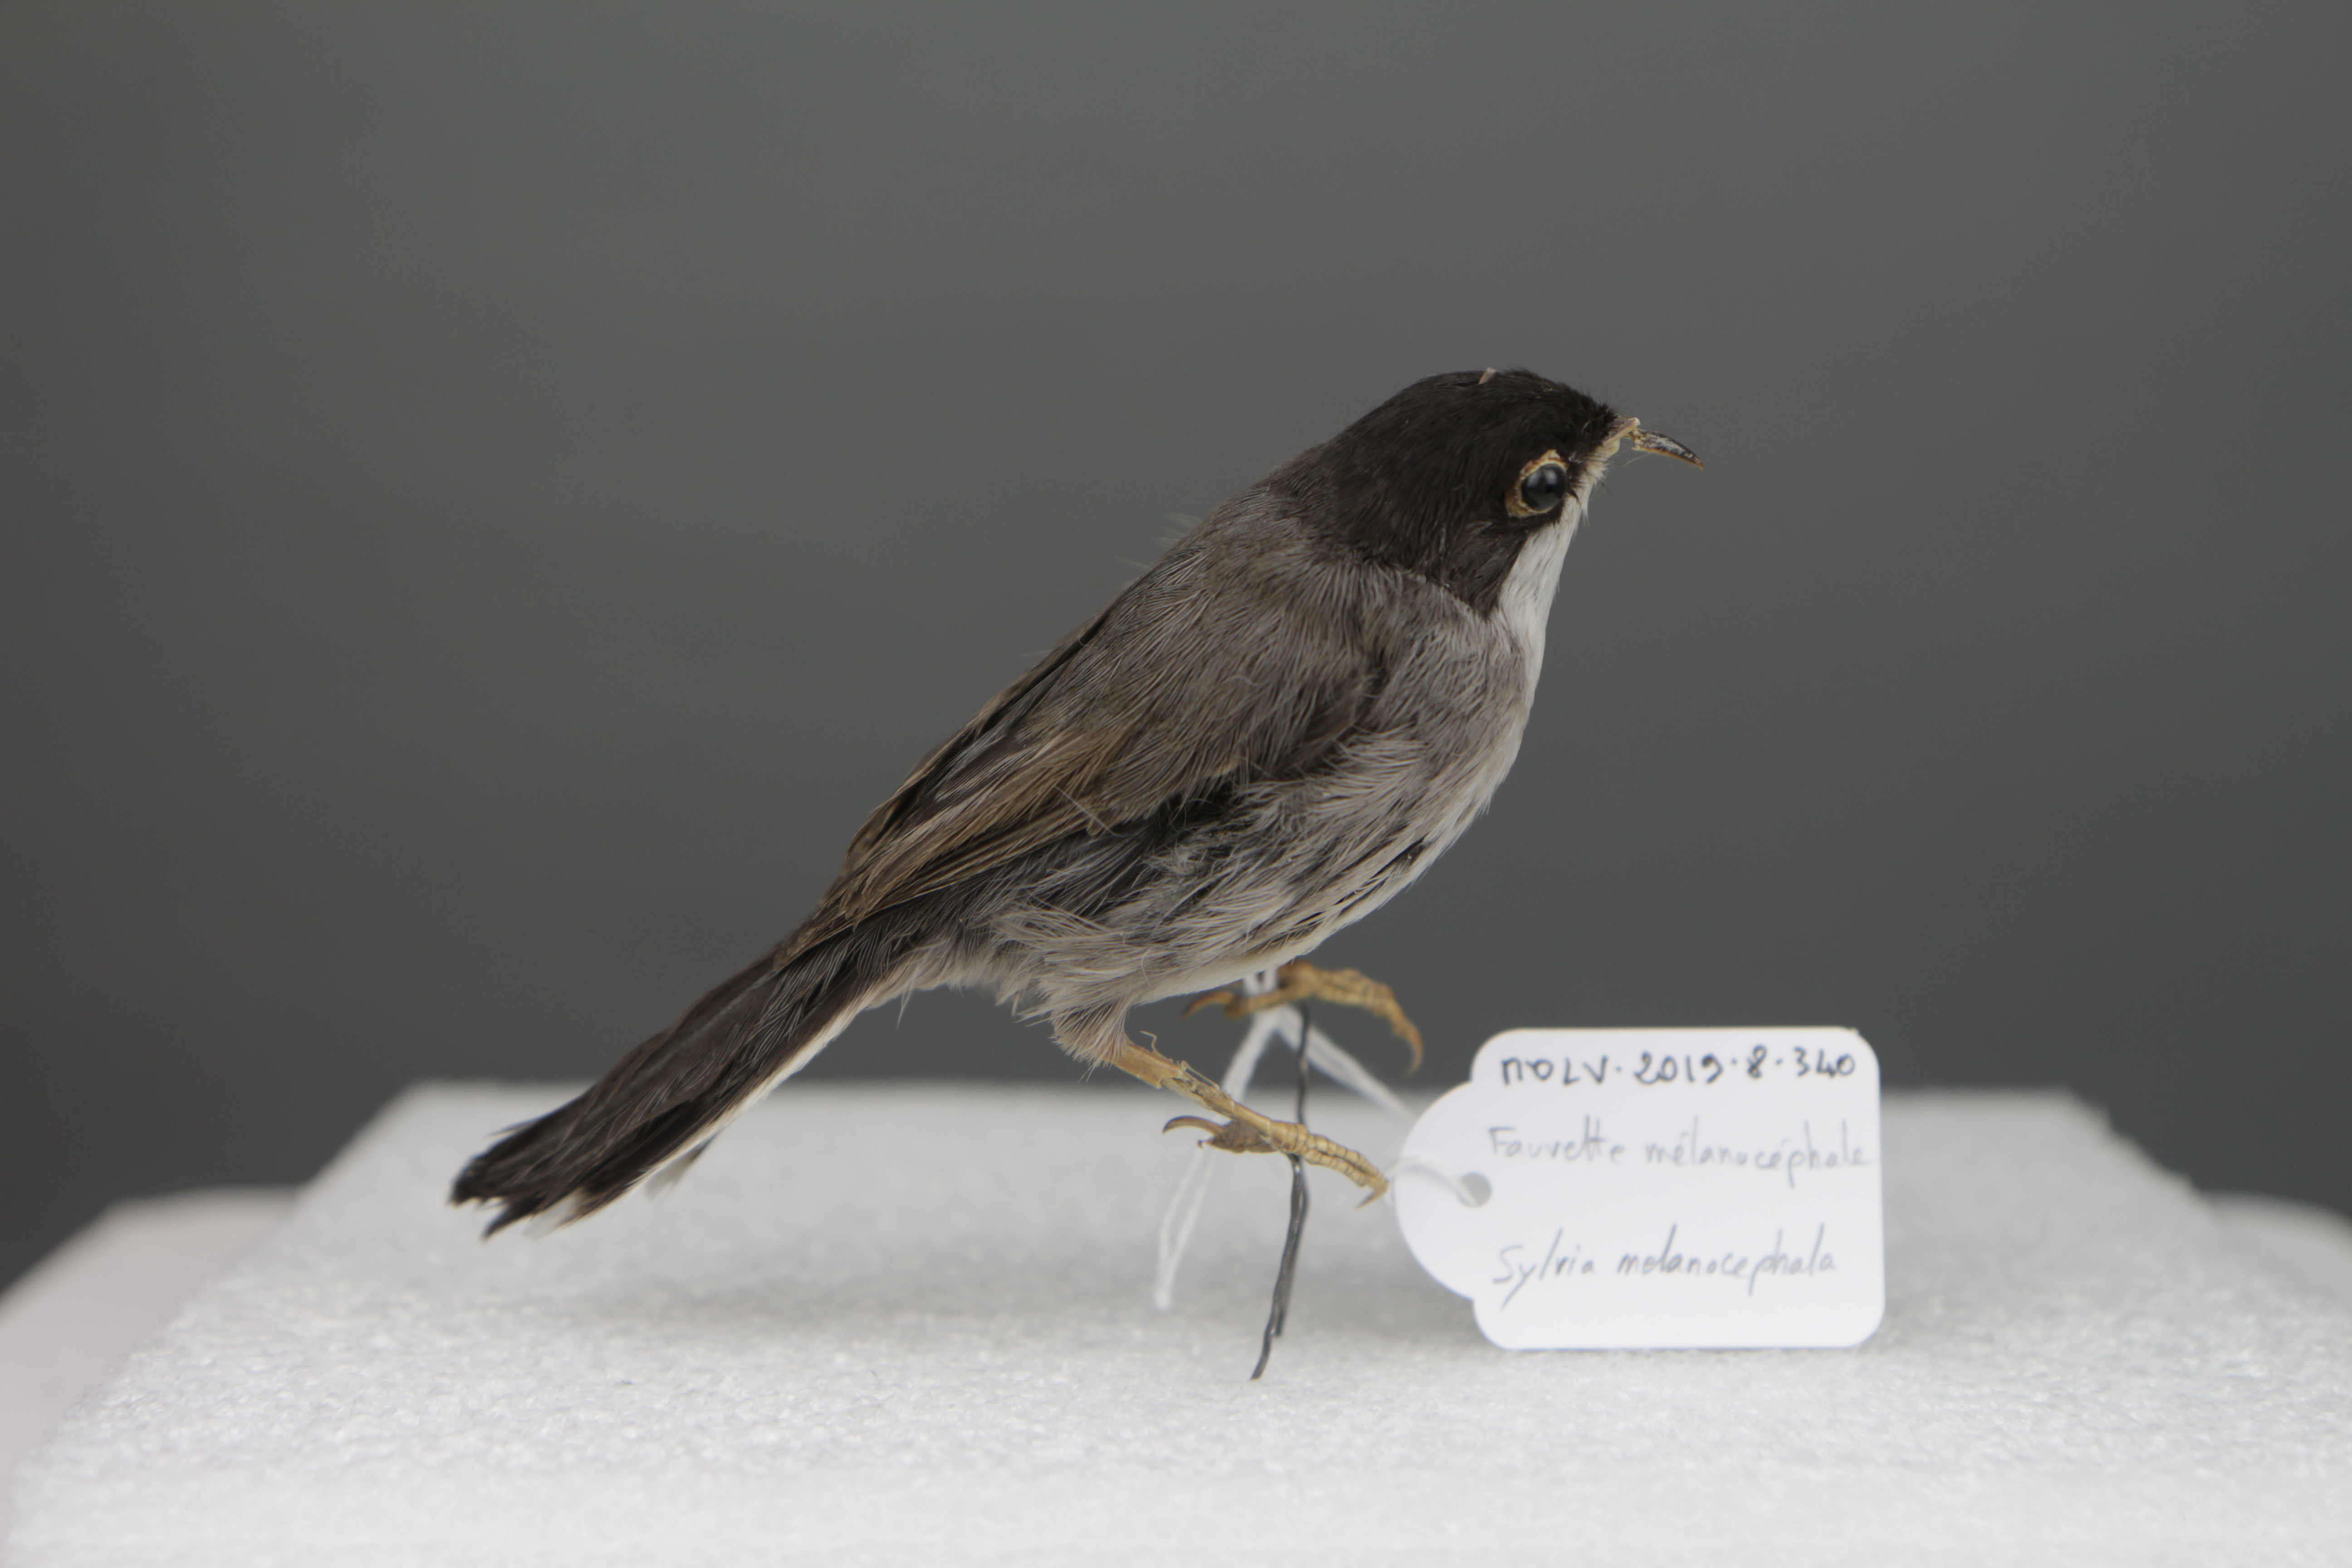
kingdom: Animalia
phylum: Chordata
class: Aves
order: Passeriformes
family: Sylviidae
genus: Sylvia
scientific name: Sylvia melanocephala
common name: Sardinian warbler
